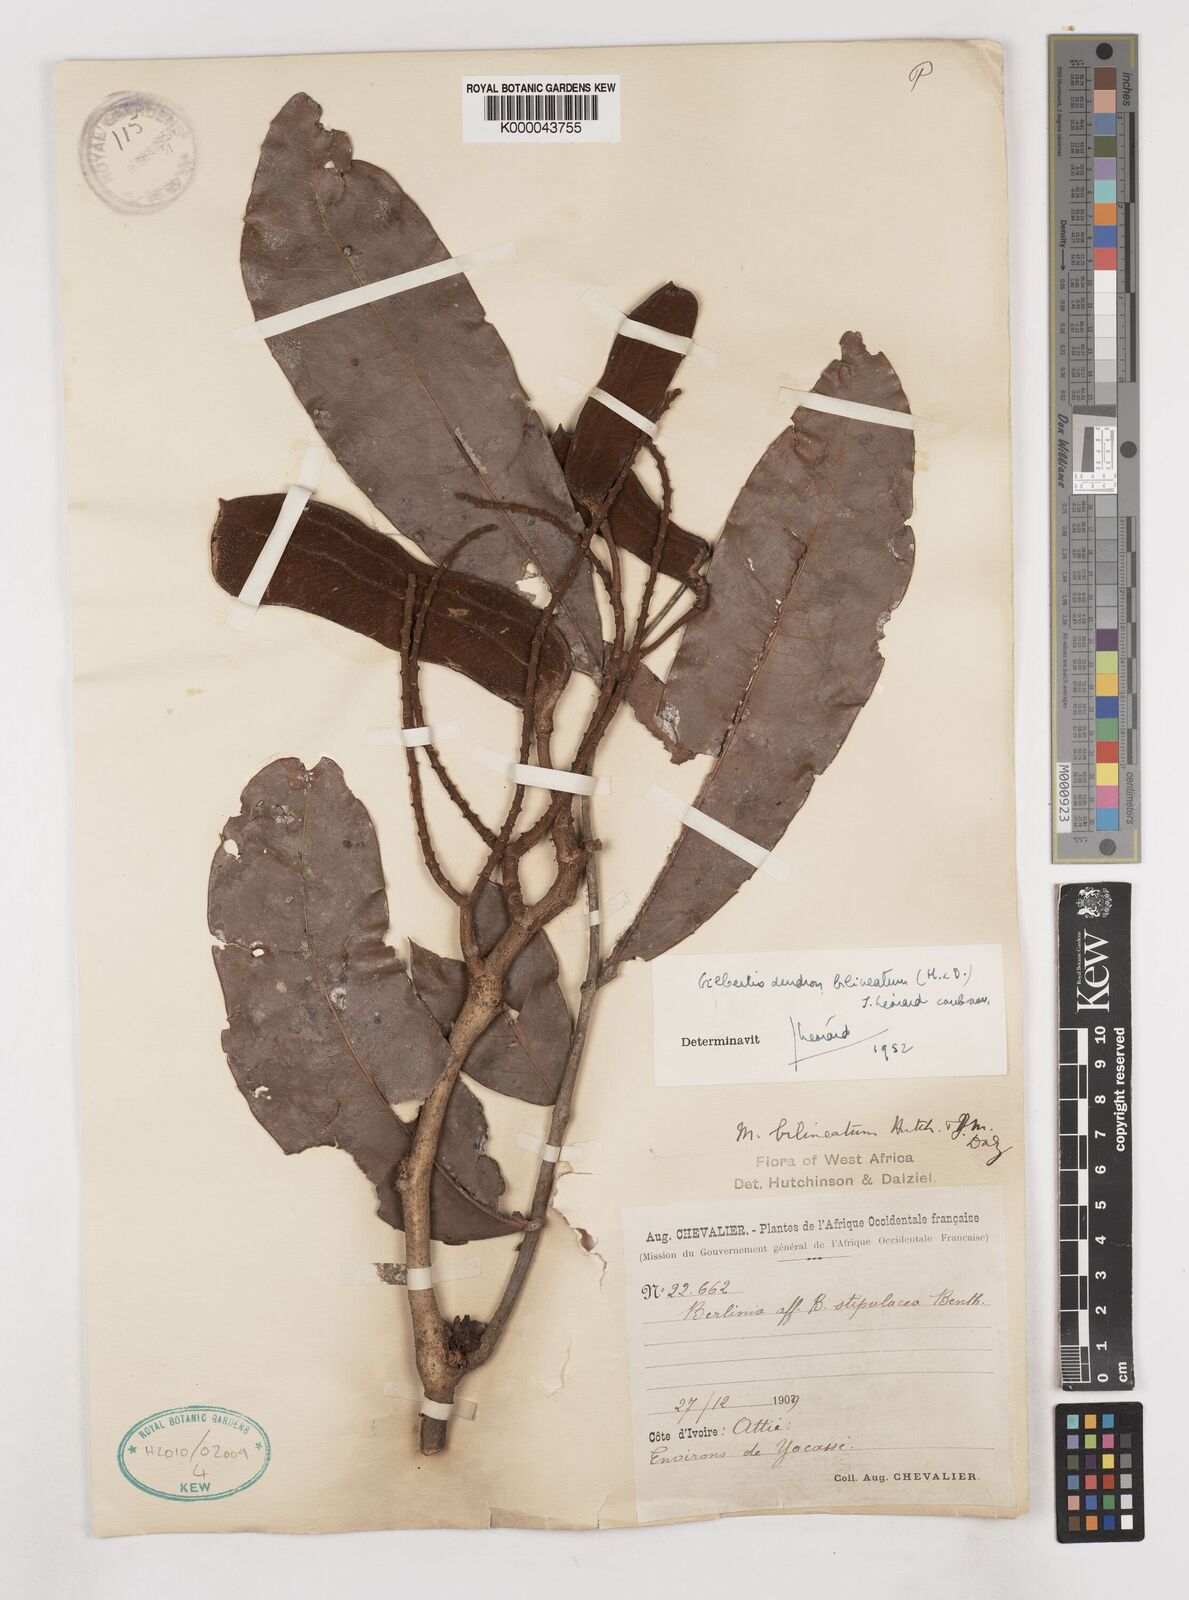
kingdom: Plantae
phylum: Tracheophyta
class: Magnoliopsida
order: Fabales
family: Fabaceae
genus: Gilbertiodendron
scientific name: Gilbertiodendron
